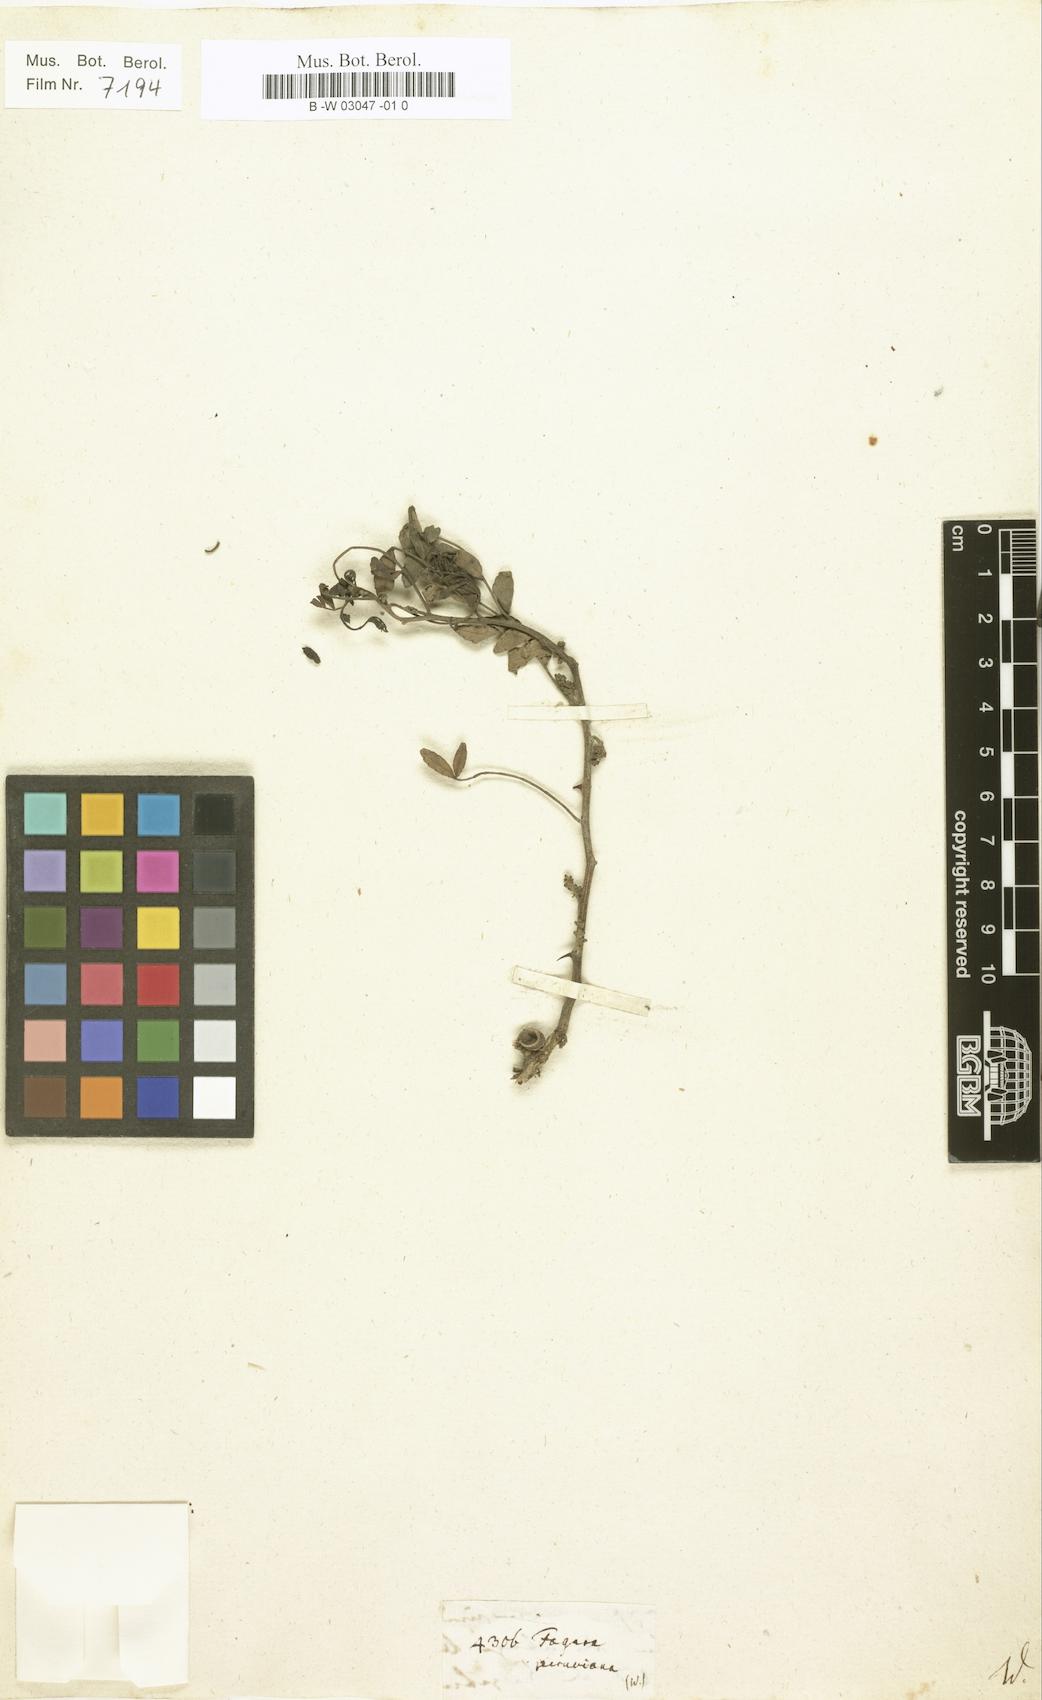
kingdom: Plantae
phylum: Tracheophyta
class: Magnoliopsida
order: Sapindales
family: Rutaceae
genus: Zanthoxylum
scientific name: Zanthoxylum fagara
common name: Lime prickly-ash
